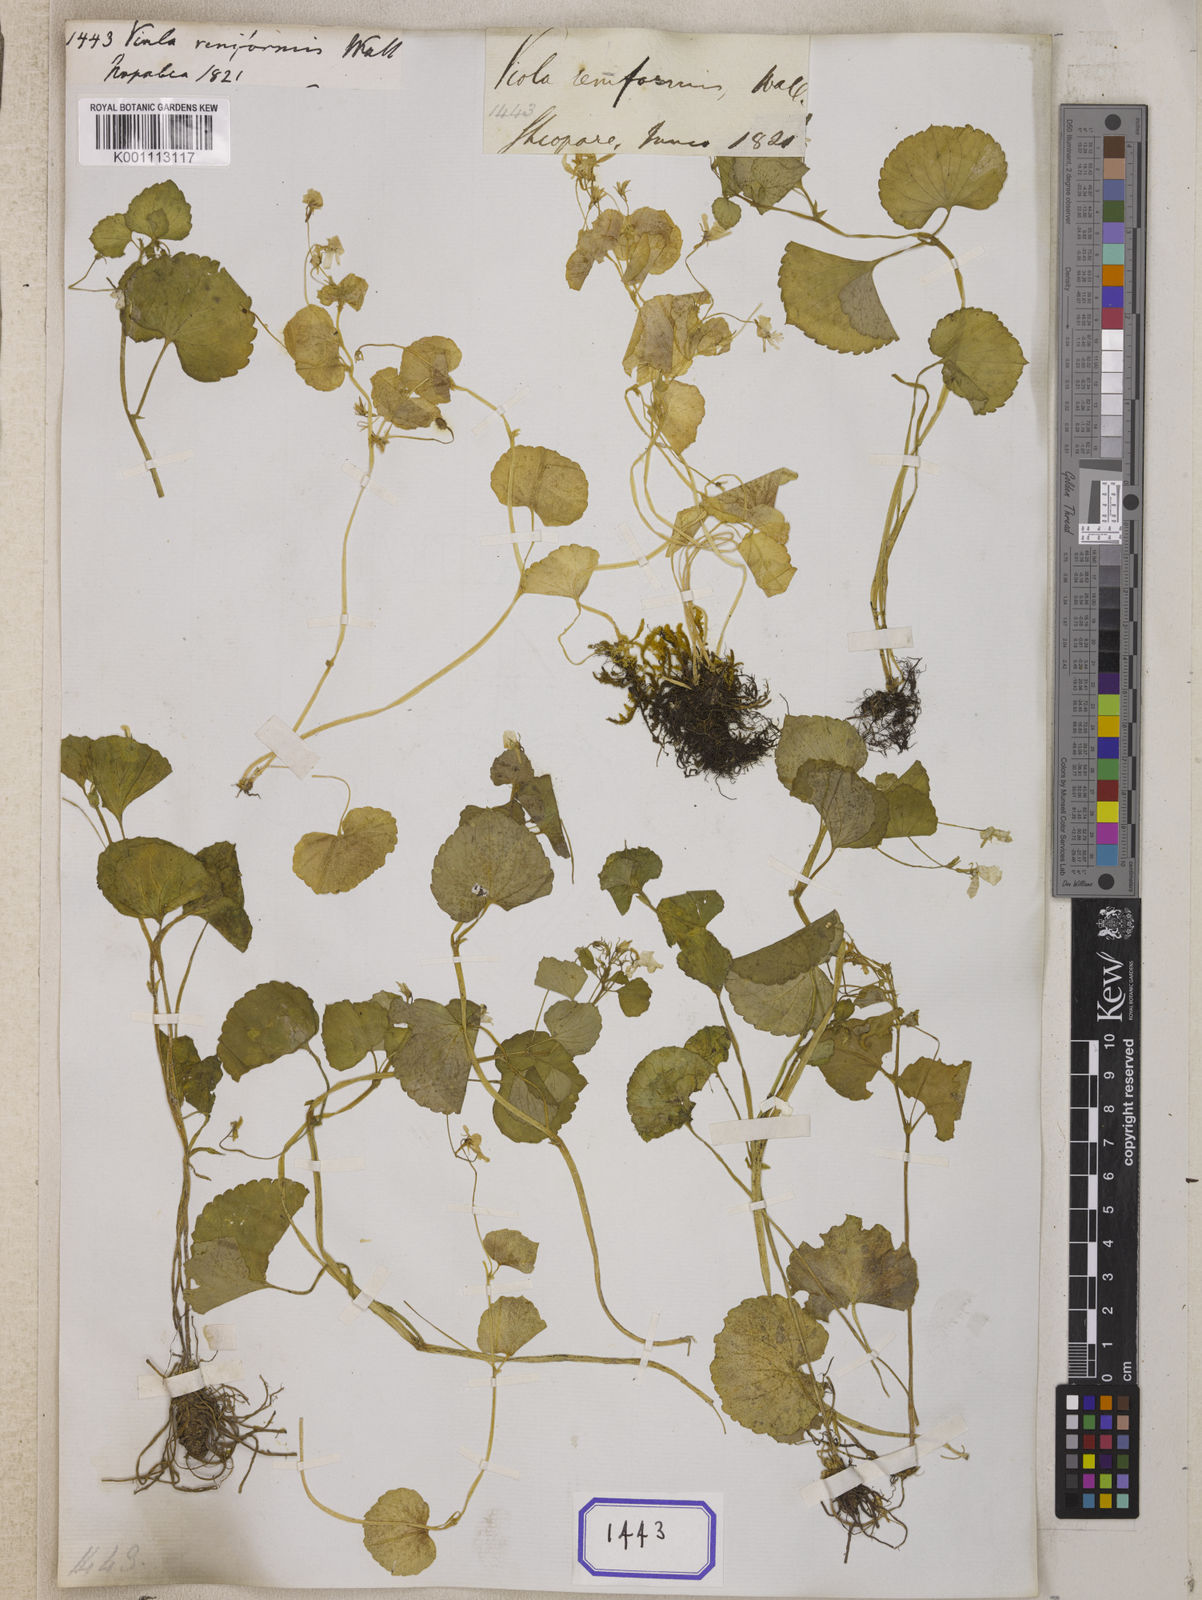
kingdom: Plantae
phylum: Tracheophyta
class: Magnoliopsida
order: Malpighiales
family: Violaceae
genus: Viola
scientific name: Viola
